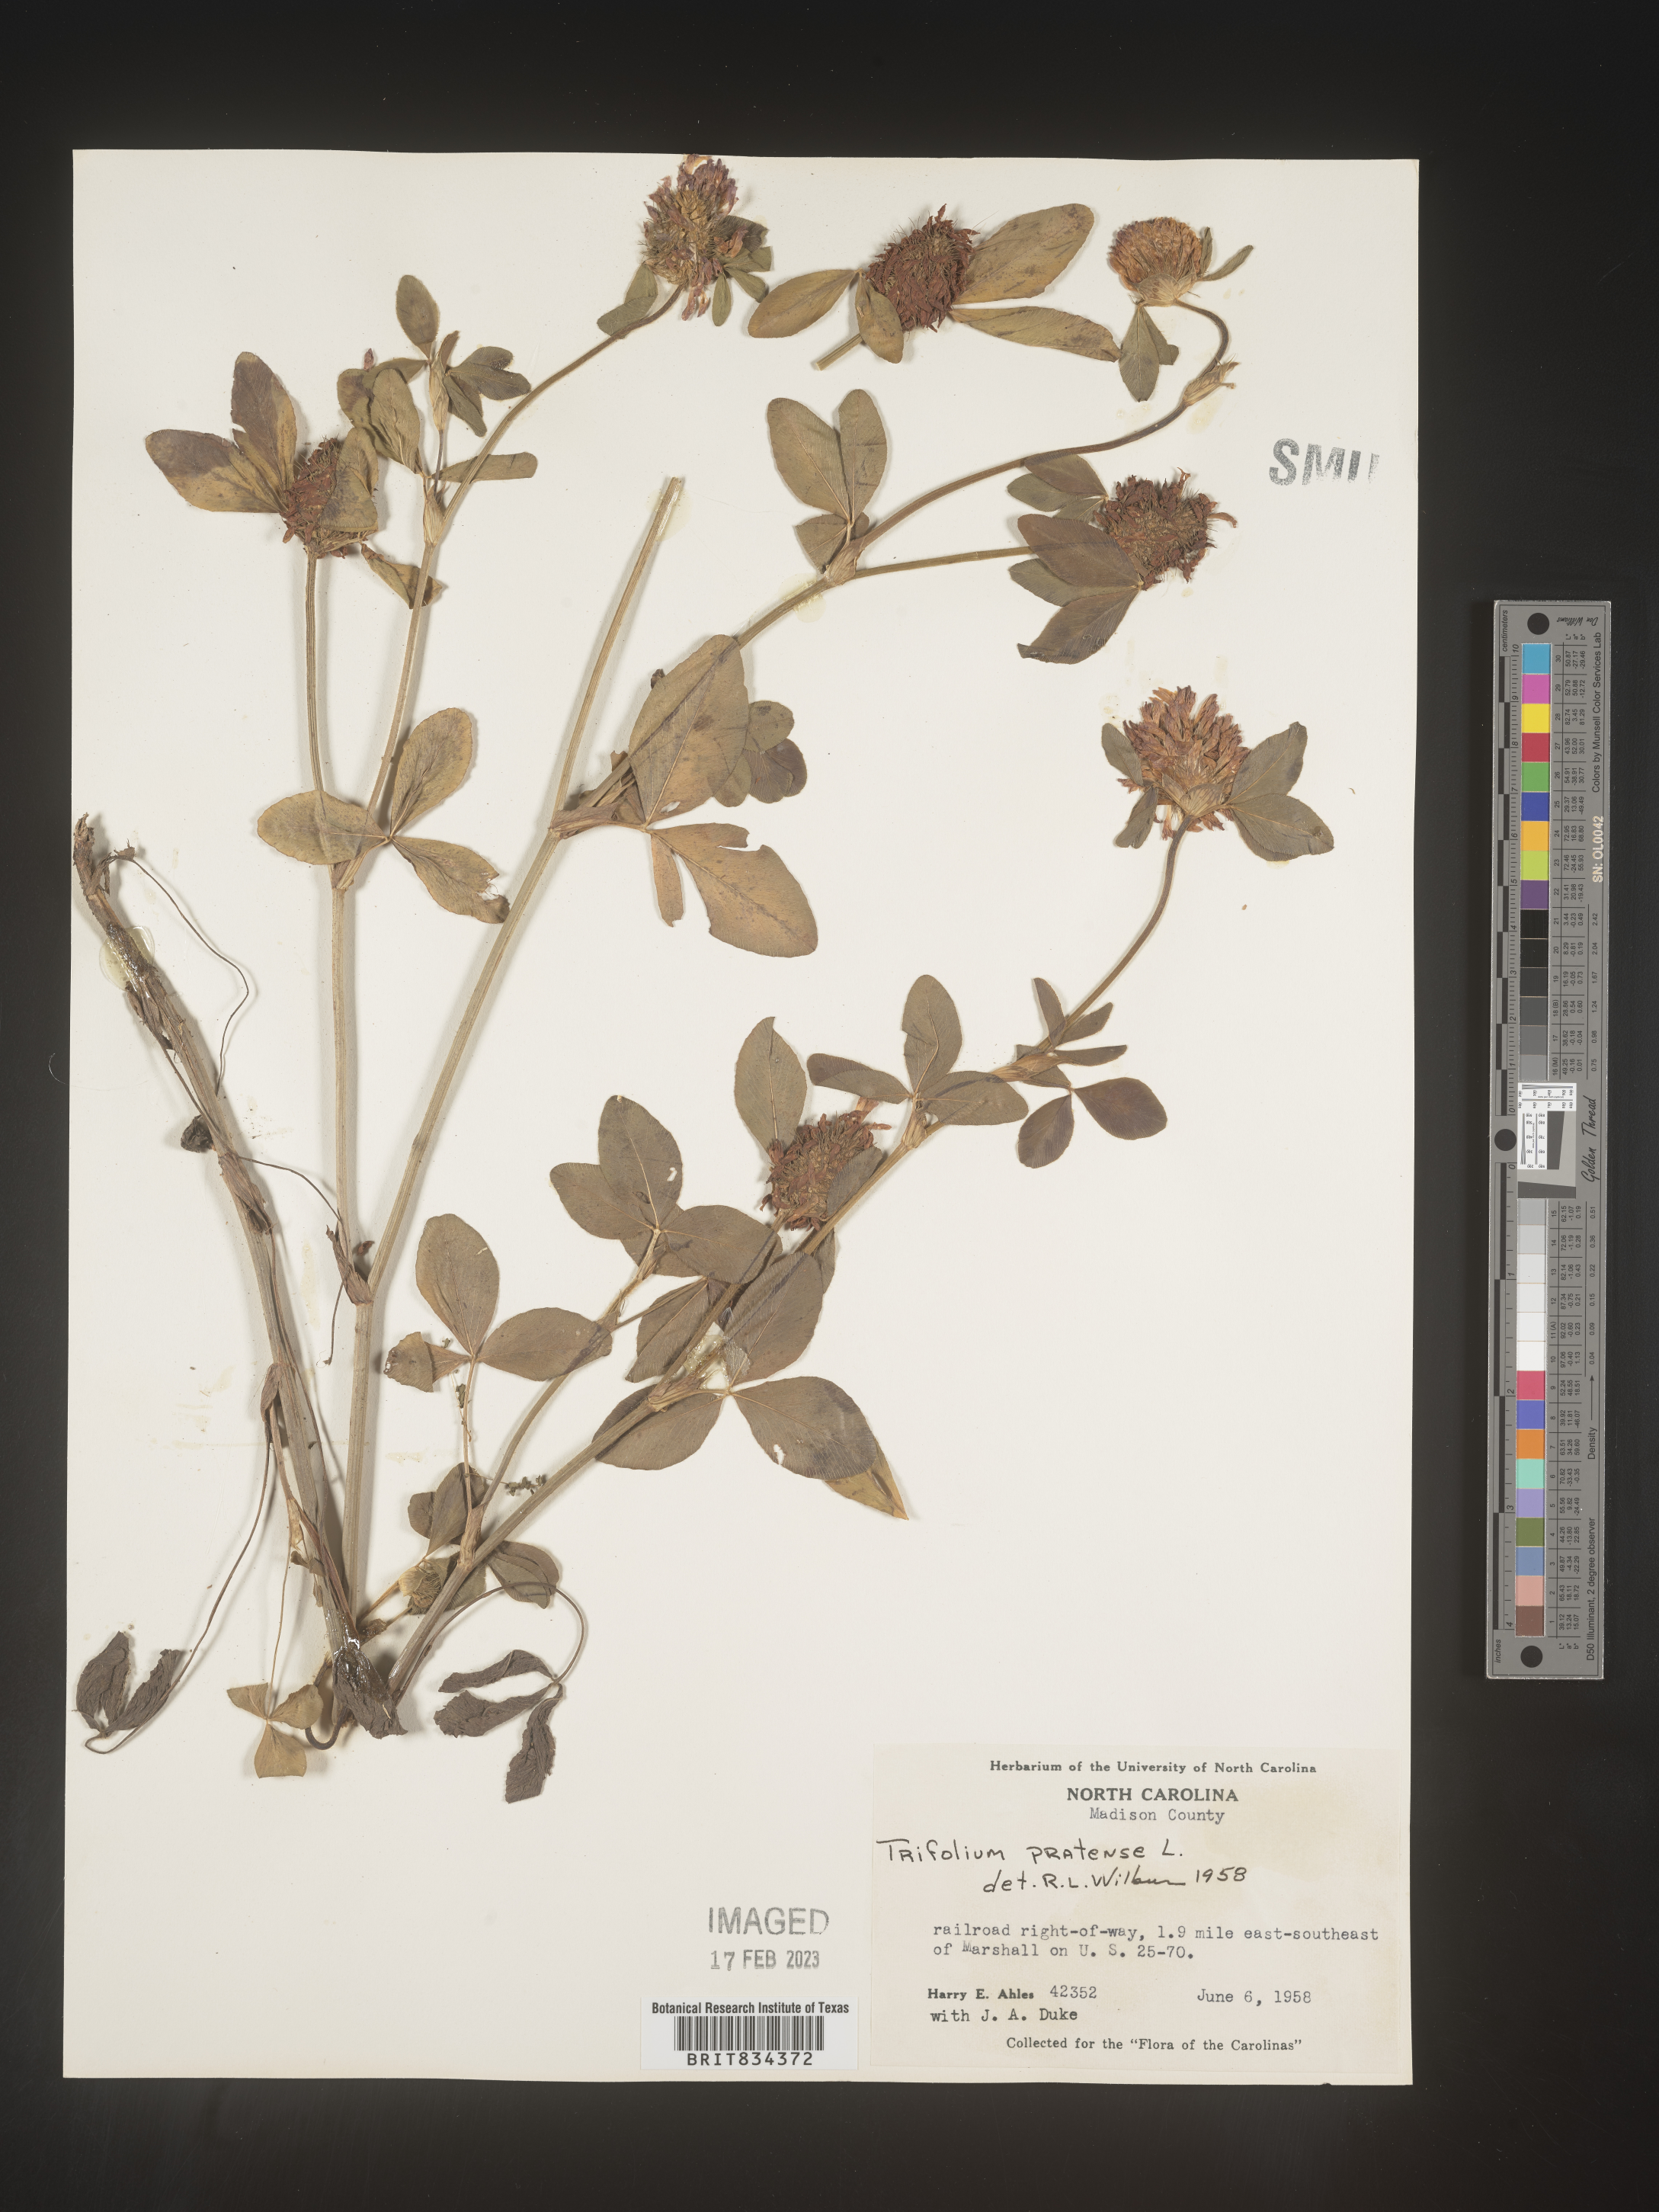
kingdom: Plantae
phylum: Tracheophyta
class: Magnoliopsida
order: Fabales
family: Fabaceae
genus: Trifolium
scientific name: Trifolium pratense
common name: Red clover
